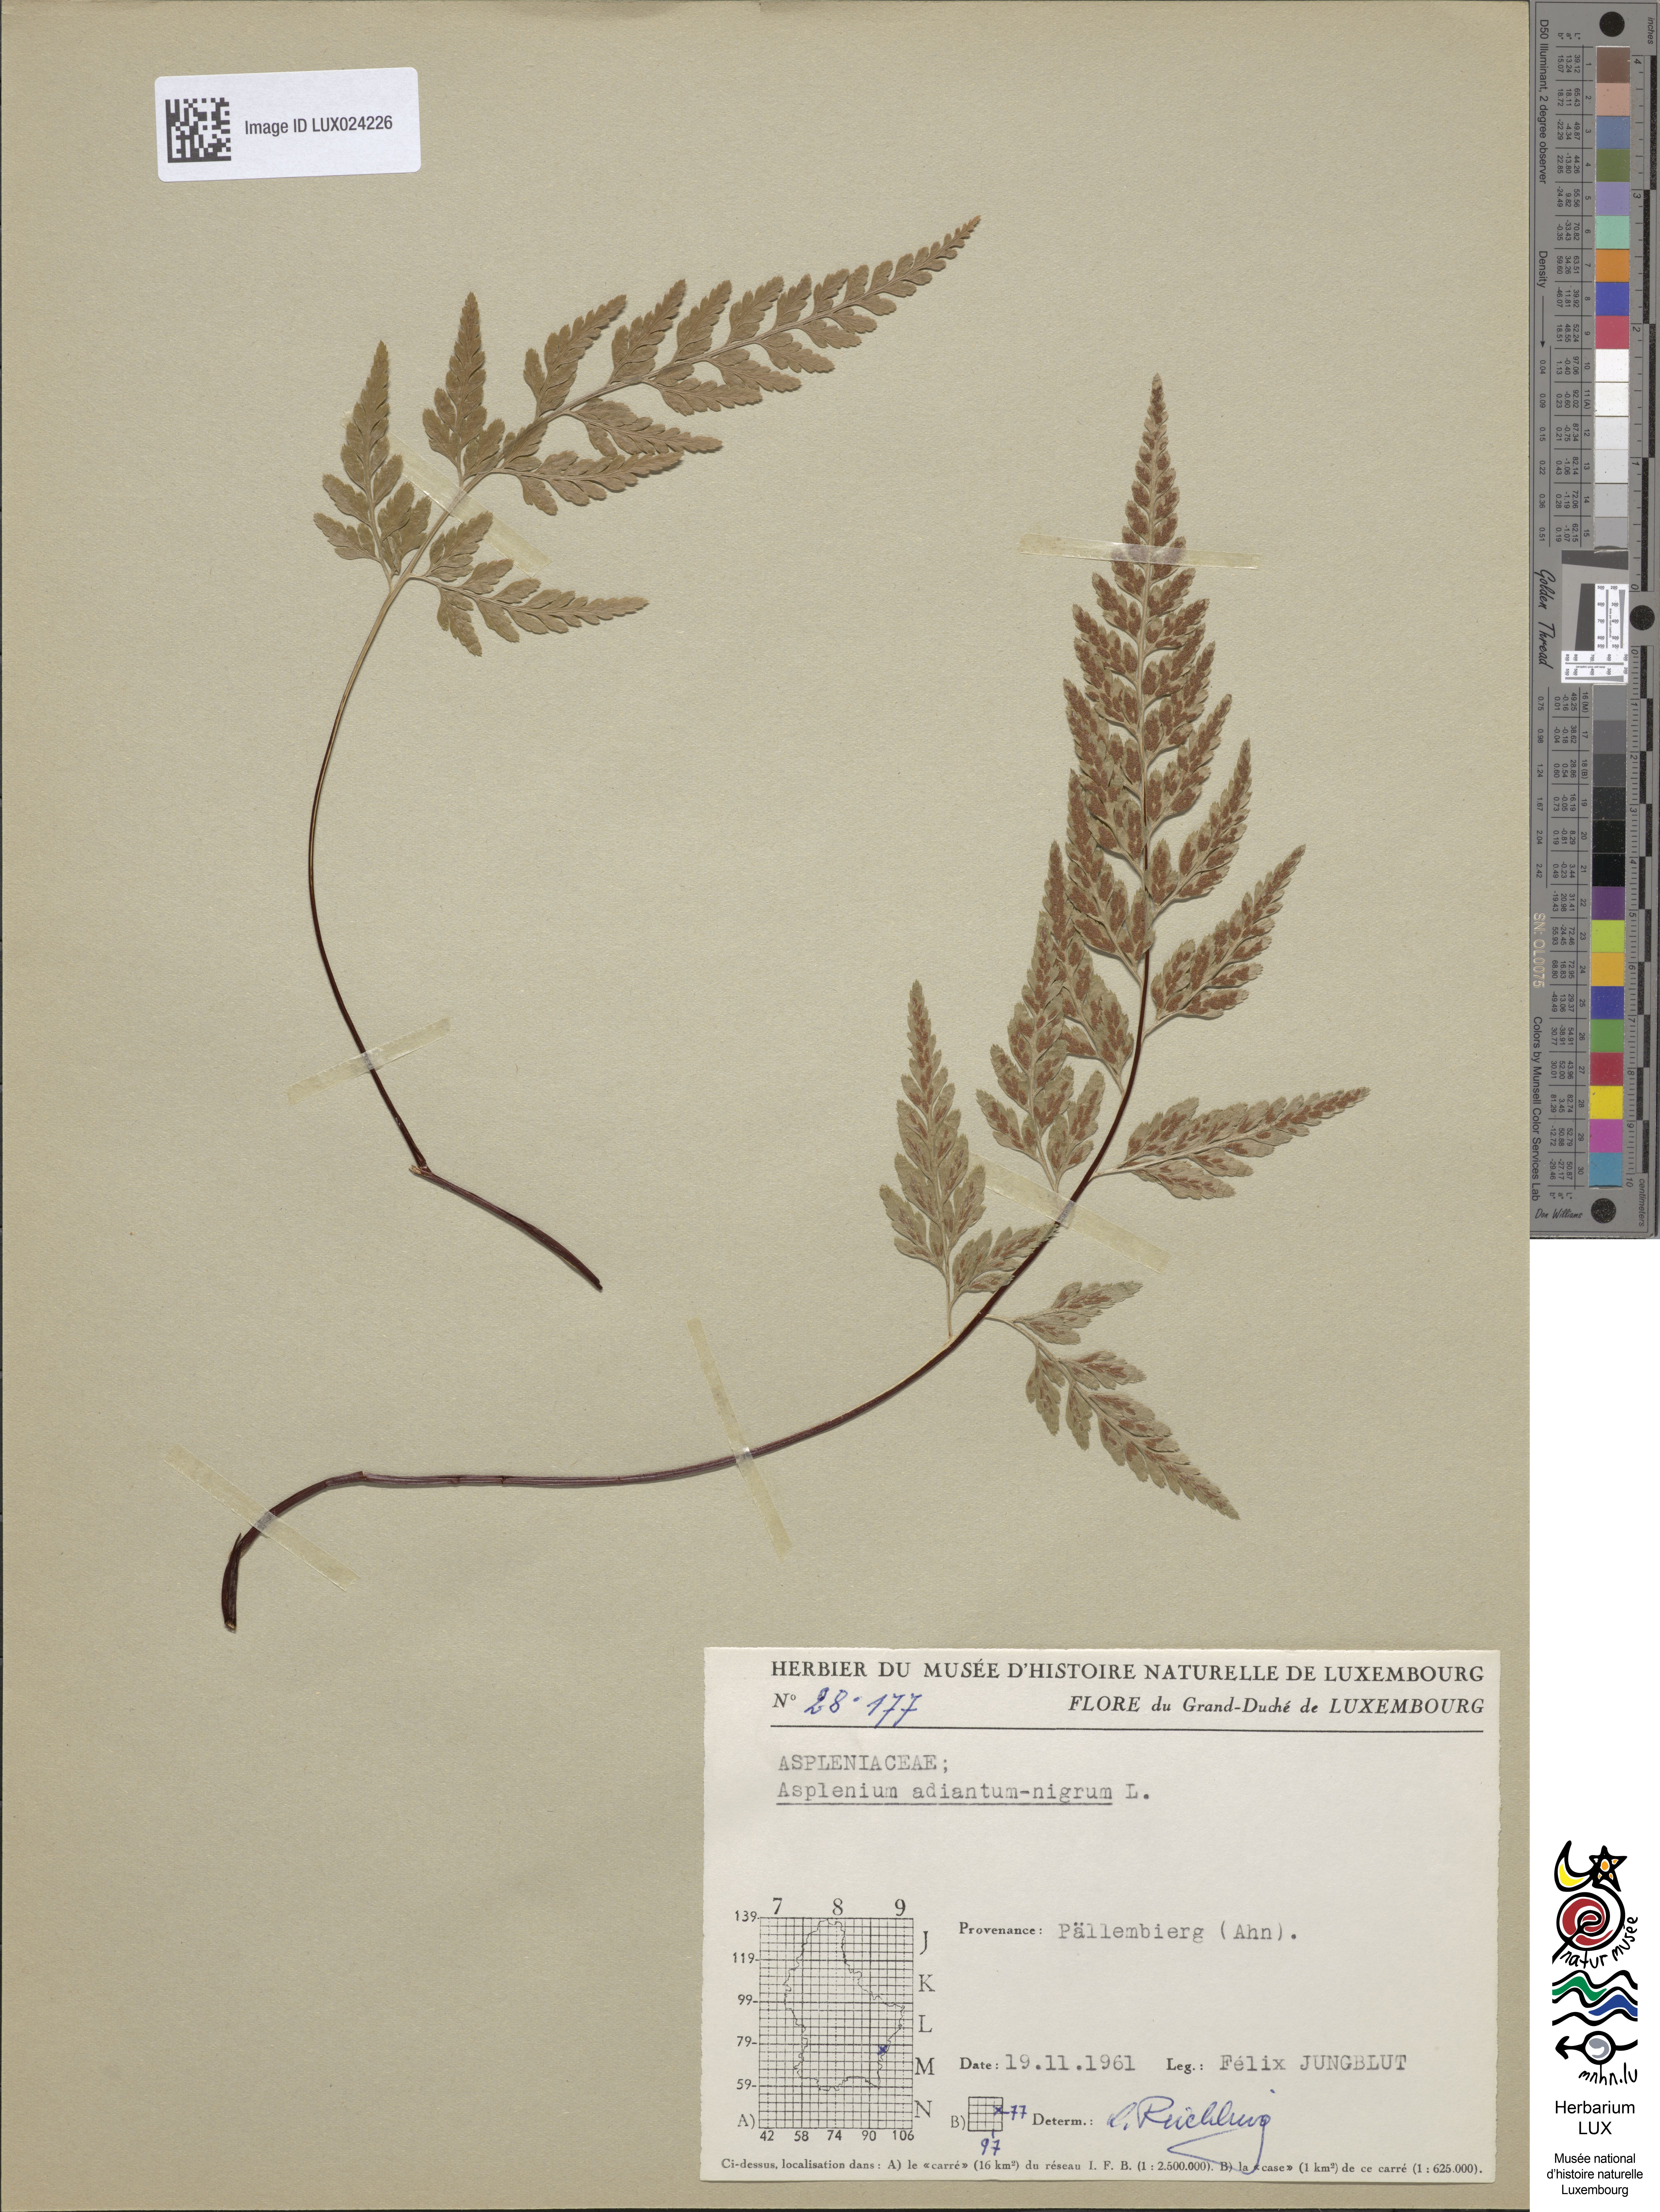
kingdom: Plantae
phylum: Tracheophyta
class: Polypodiopsida
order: Polypodiales
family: Aspleniaceae
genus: Asplenium
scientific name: Asplenium adiantum-nigrum
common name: Black spleenwort
